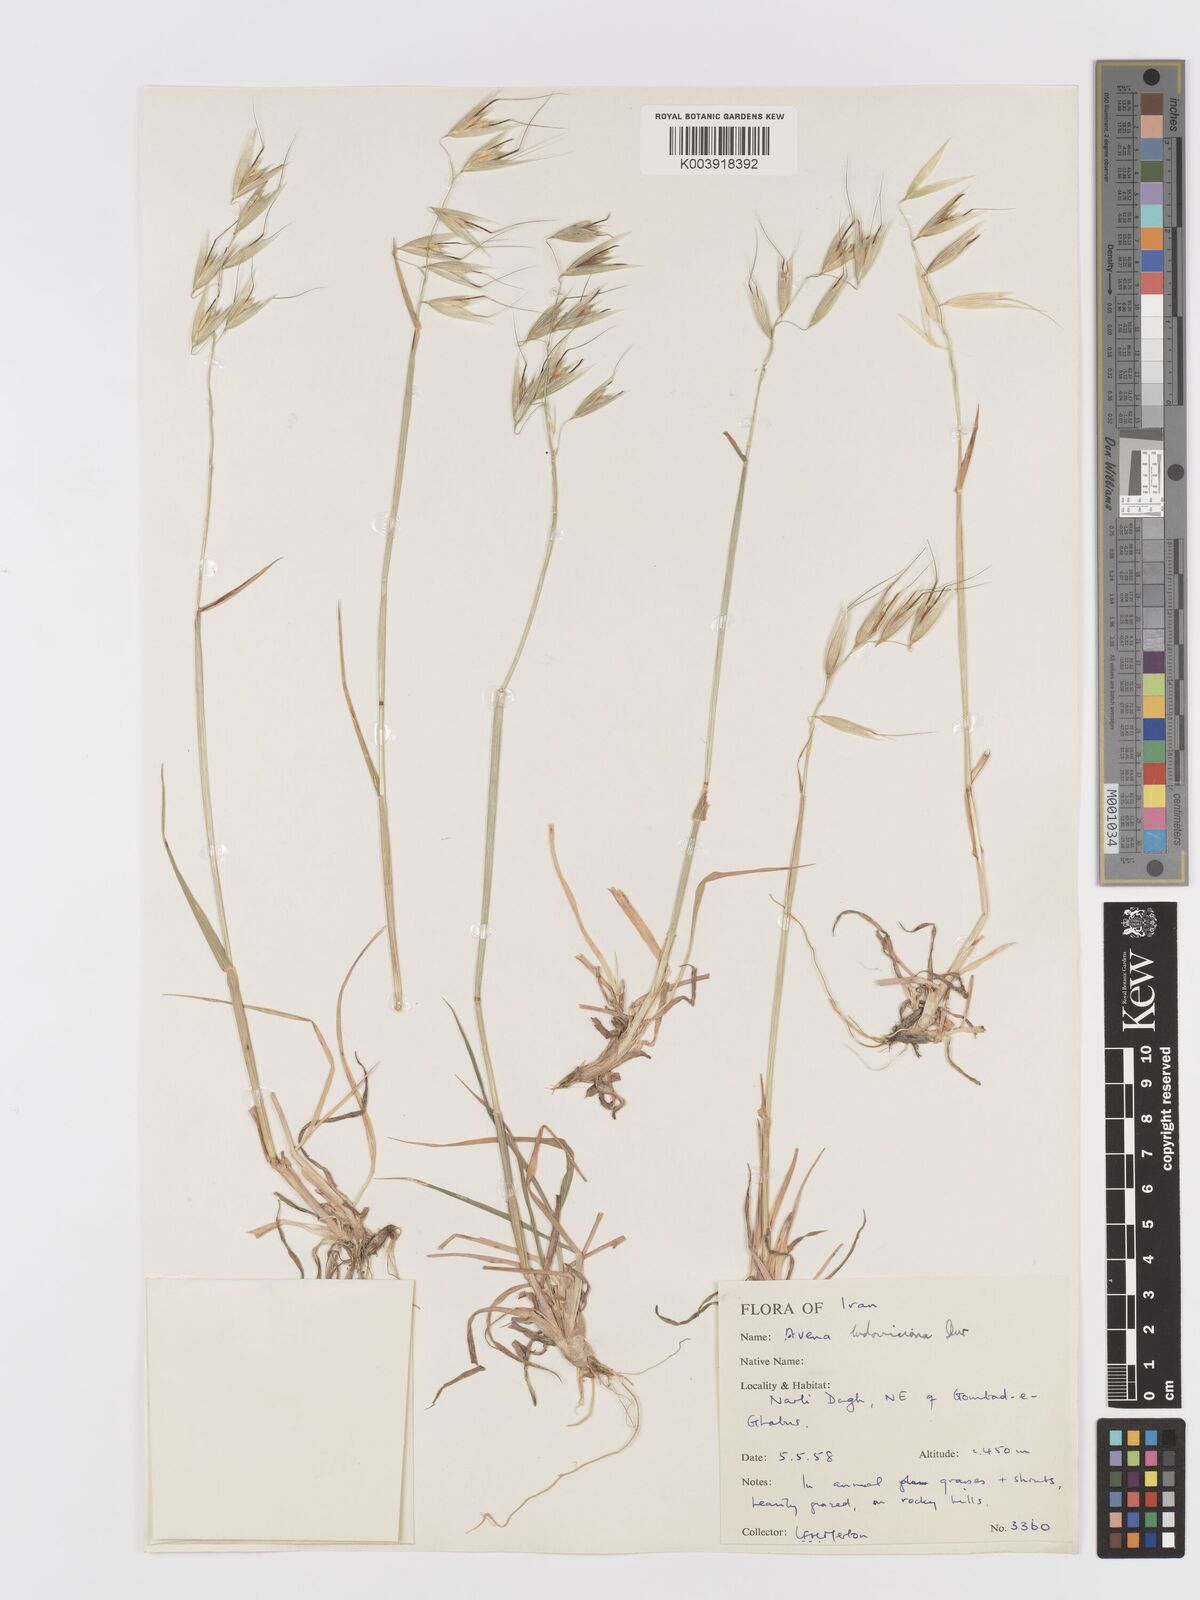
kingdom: Plantae
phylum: Tracheophyta
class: Liliopsida
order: Poales
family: Poaceae
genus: Avena
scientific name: Avena sterilis
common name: Animated oat
